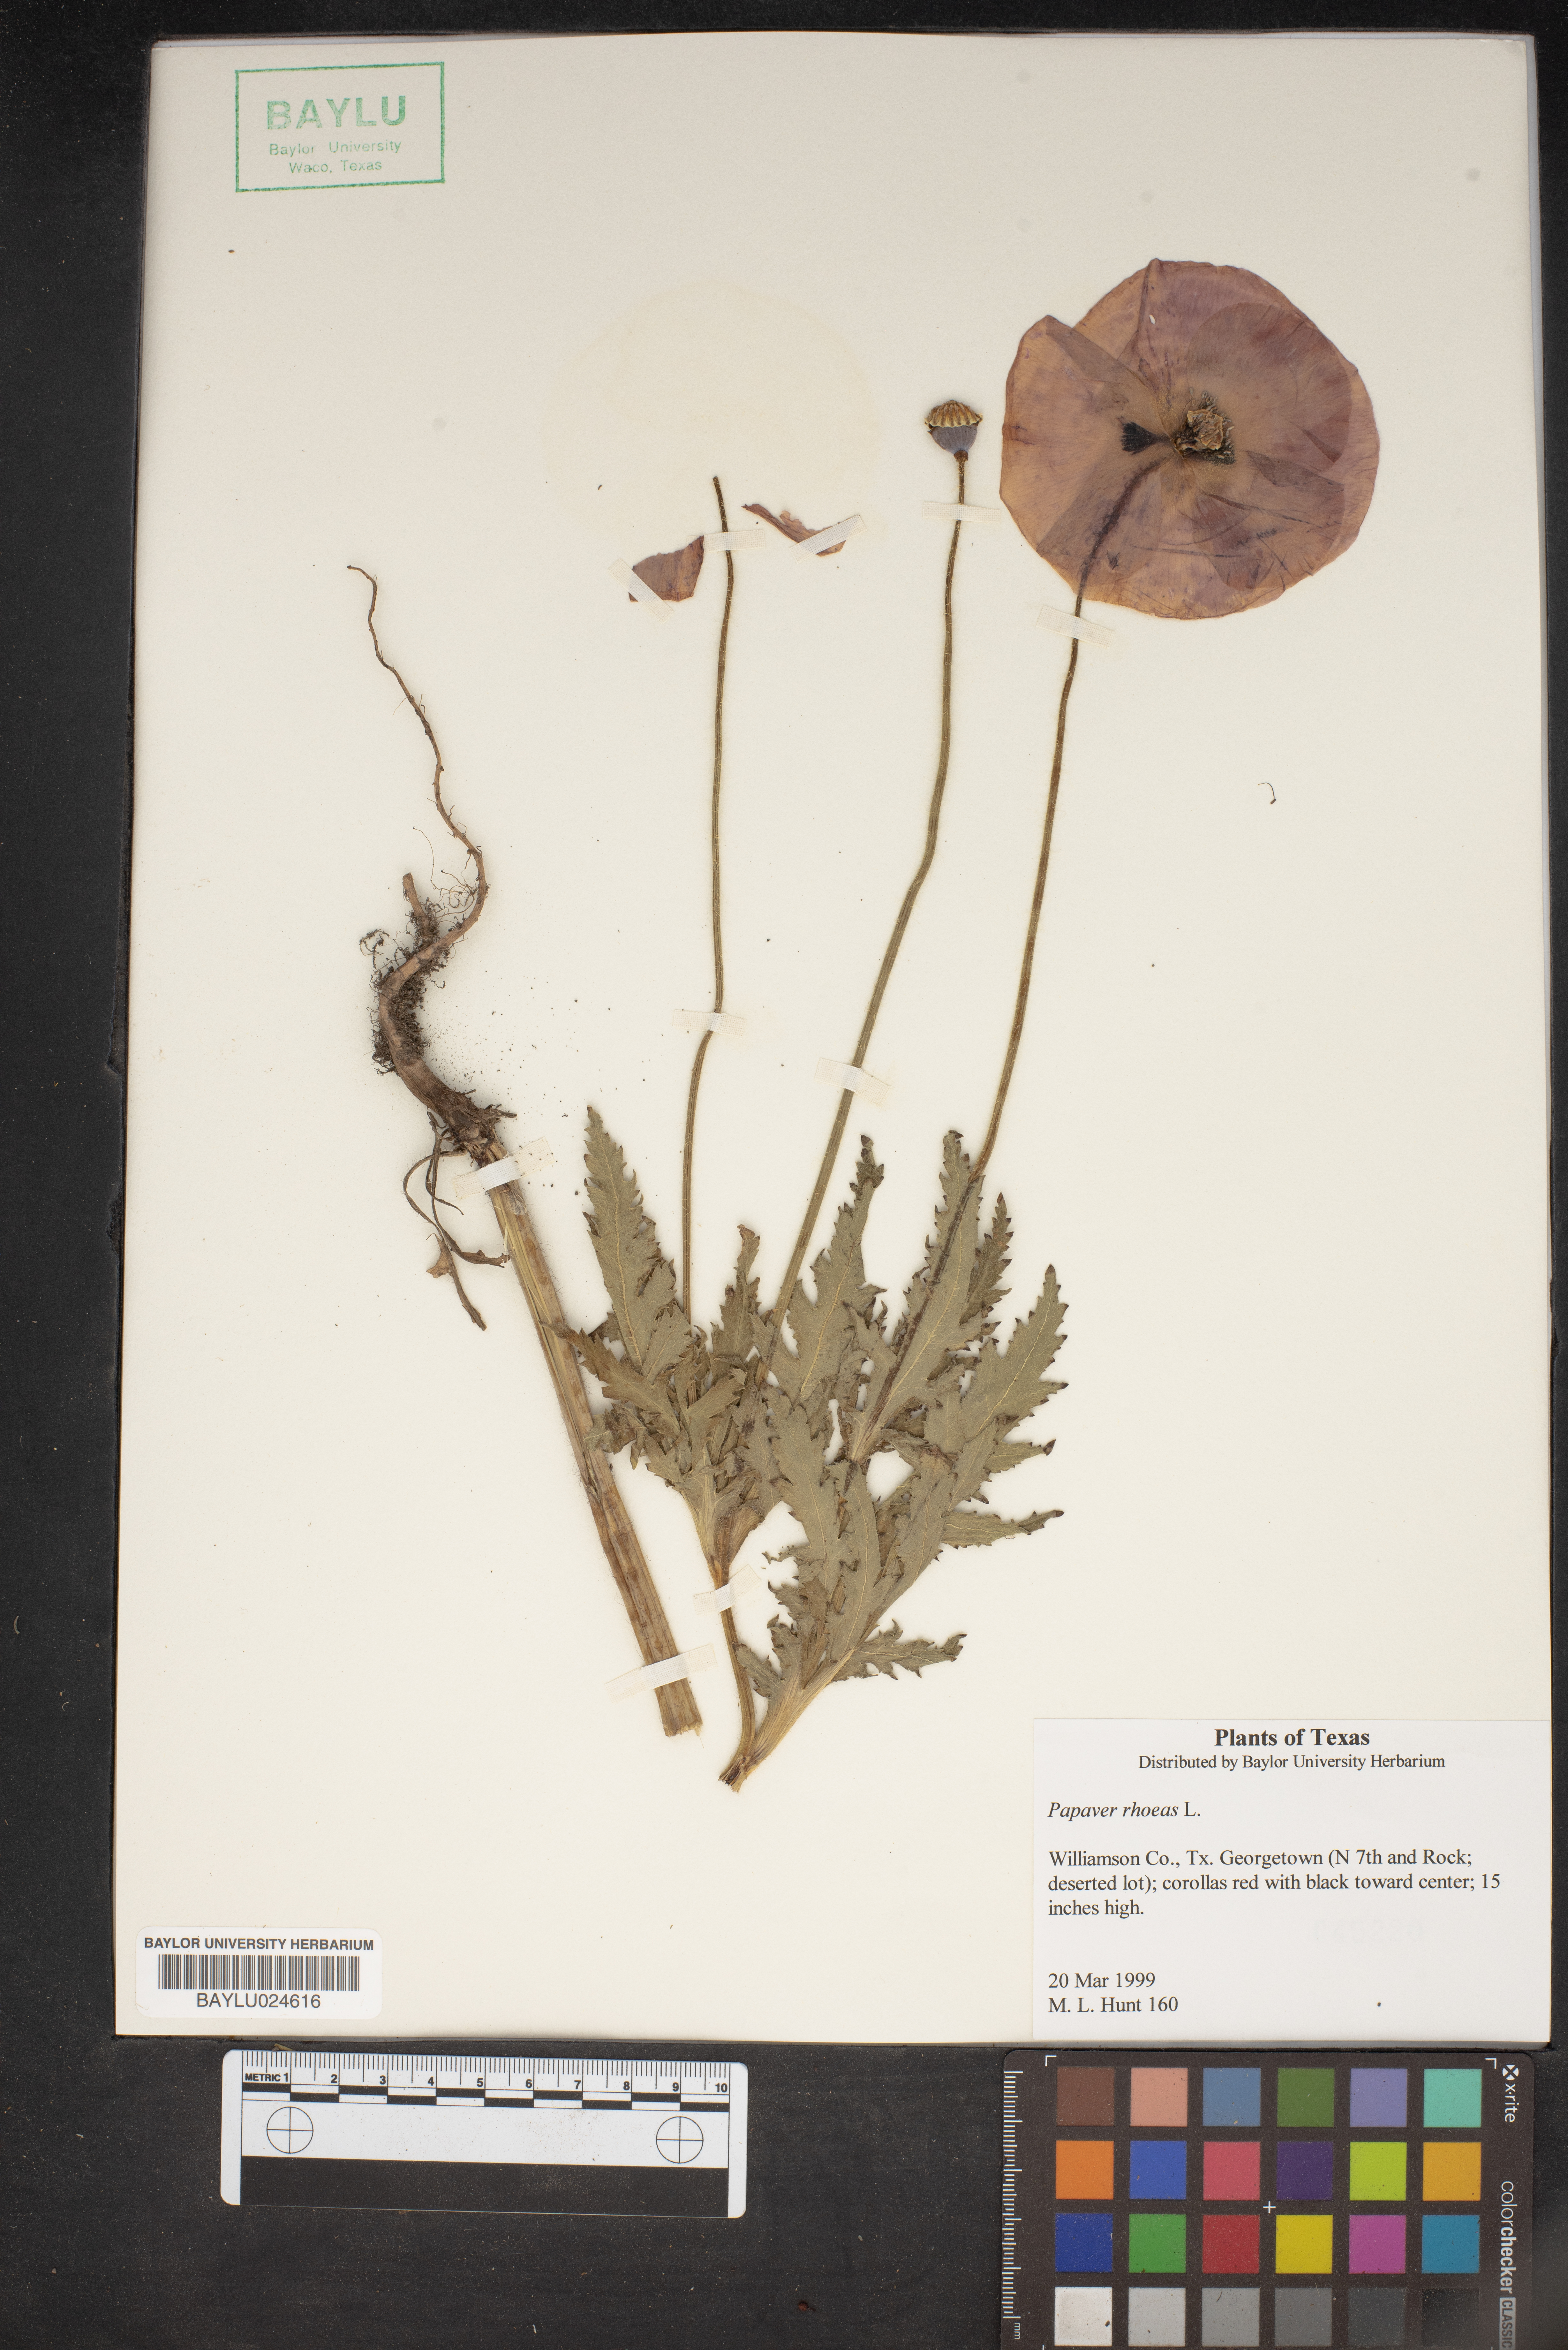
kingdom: Plantae
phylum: Tracheophyta
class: Magnoliopsida
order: Ranunculales
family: Papaveraceae
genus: Papaver
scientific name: Papaver rhoeas
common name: Corn poppy
